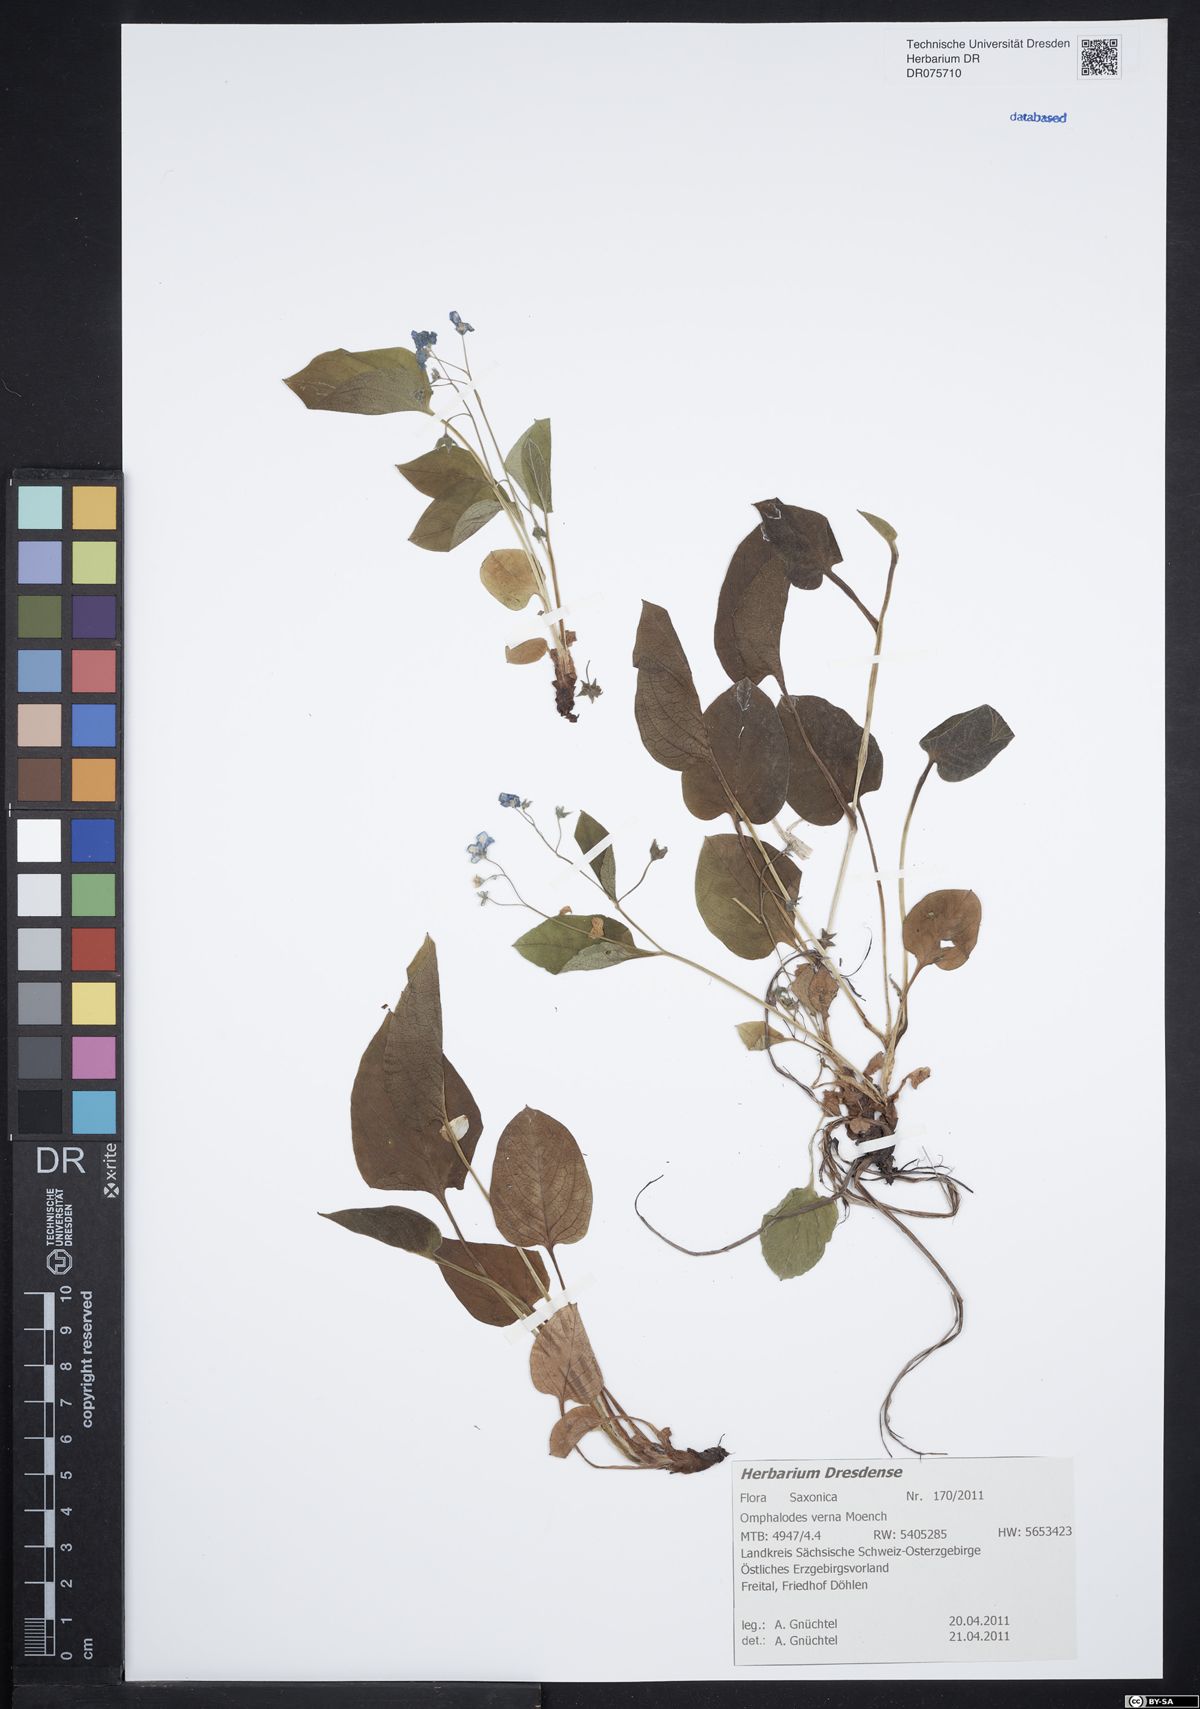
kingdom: Plantae
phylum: Tracheophyta
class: Magnoliopsida
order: Boraginales
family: Boraginaceae
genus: Omphalodes
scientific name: Omphalodes verna
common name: Blue-eyed-mary
